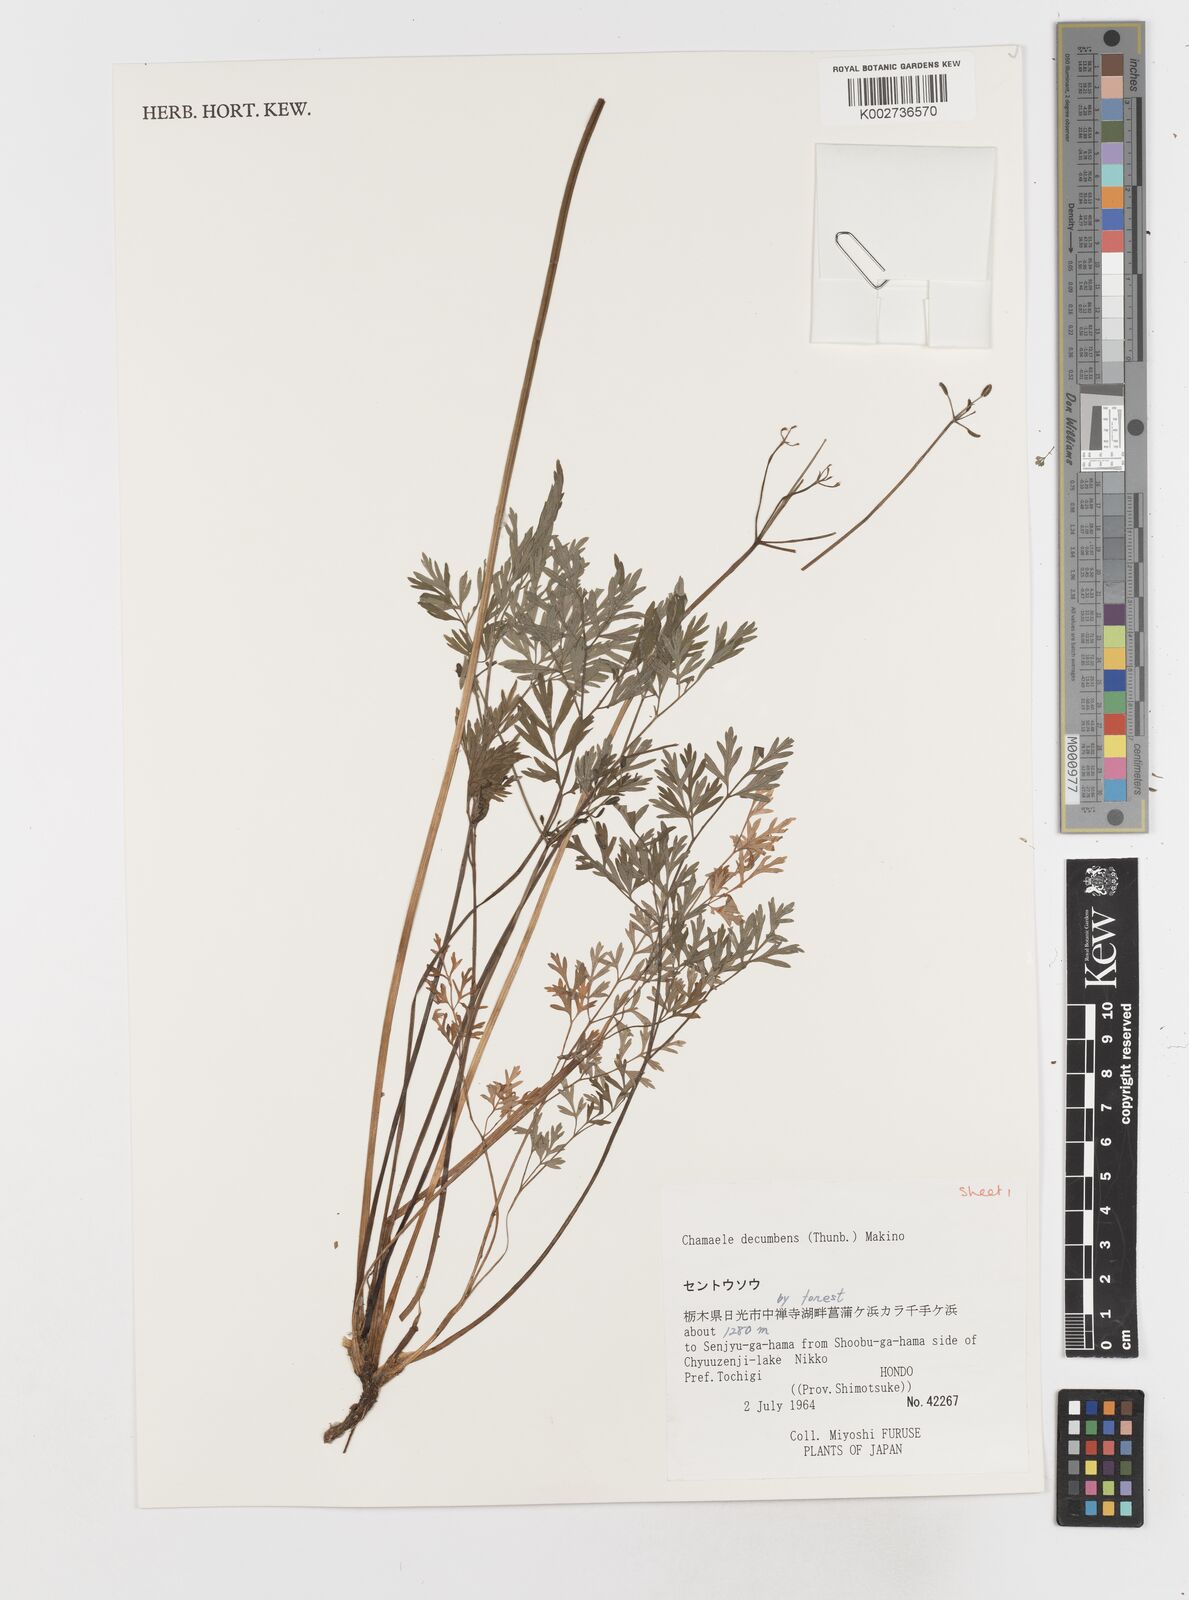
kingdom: Plantae
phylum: Tracheophyta
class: Magnoliopsida
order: Apiales
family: Apiaceae
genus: Aegopodium
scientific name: Aegopodium decumbens
